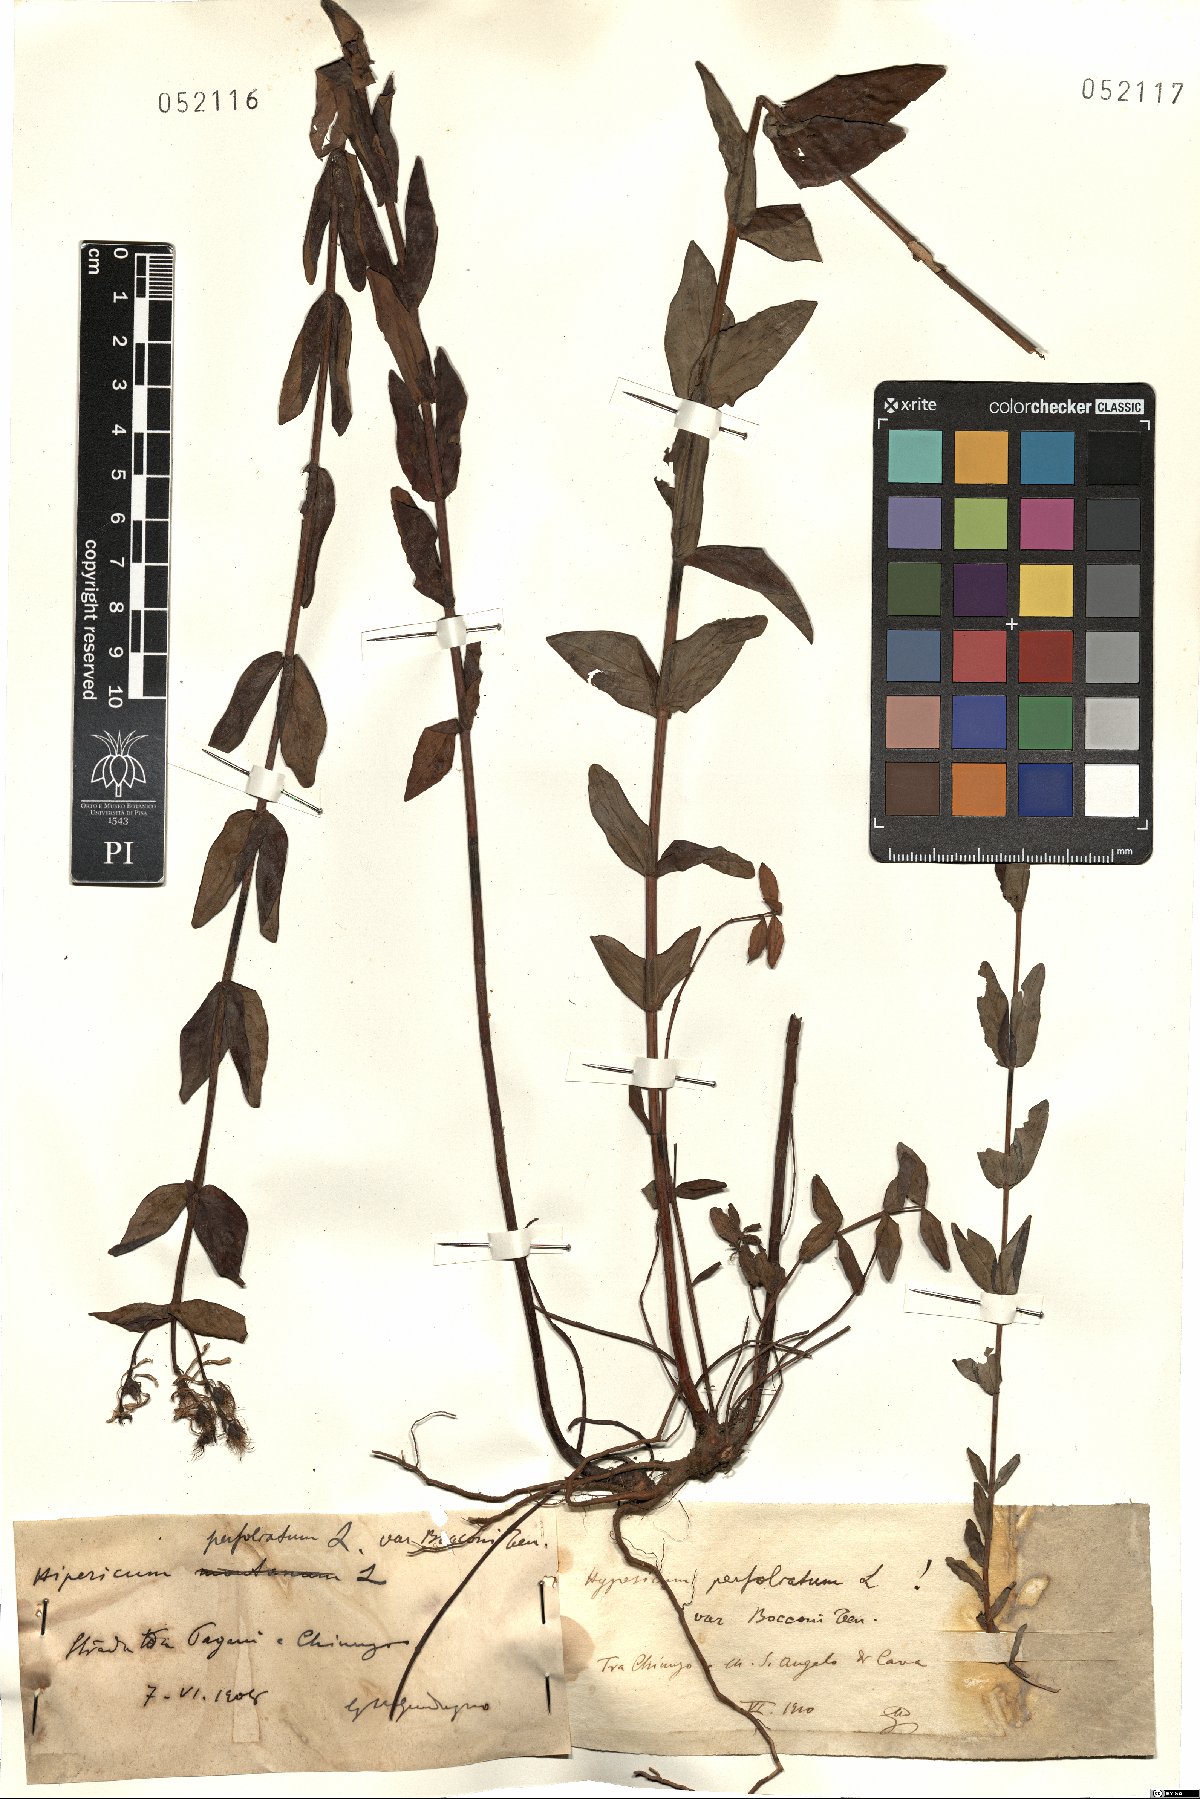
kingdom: Plantae
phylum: Tracheophyta
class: Magnoliopsida
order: Malpighiales
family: Hypericaceae
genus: Hypericum
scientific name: Hypericum perfoliatum
